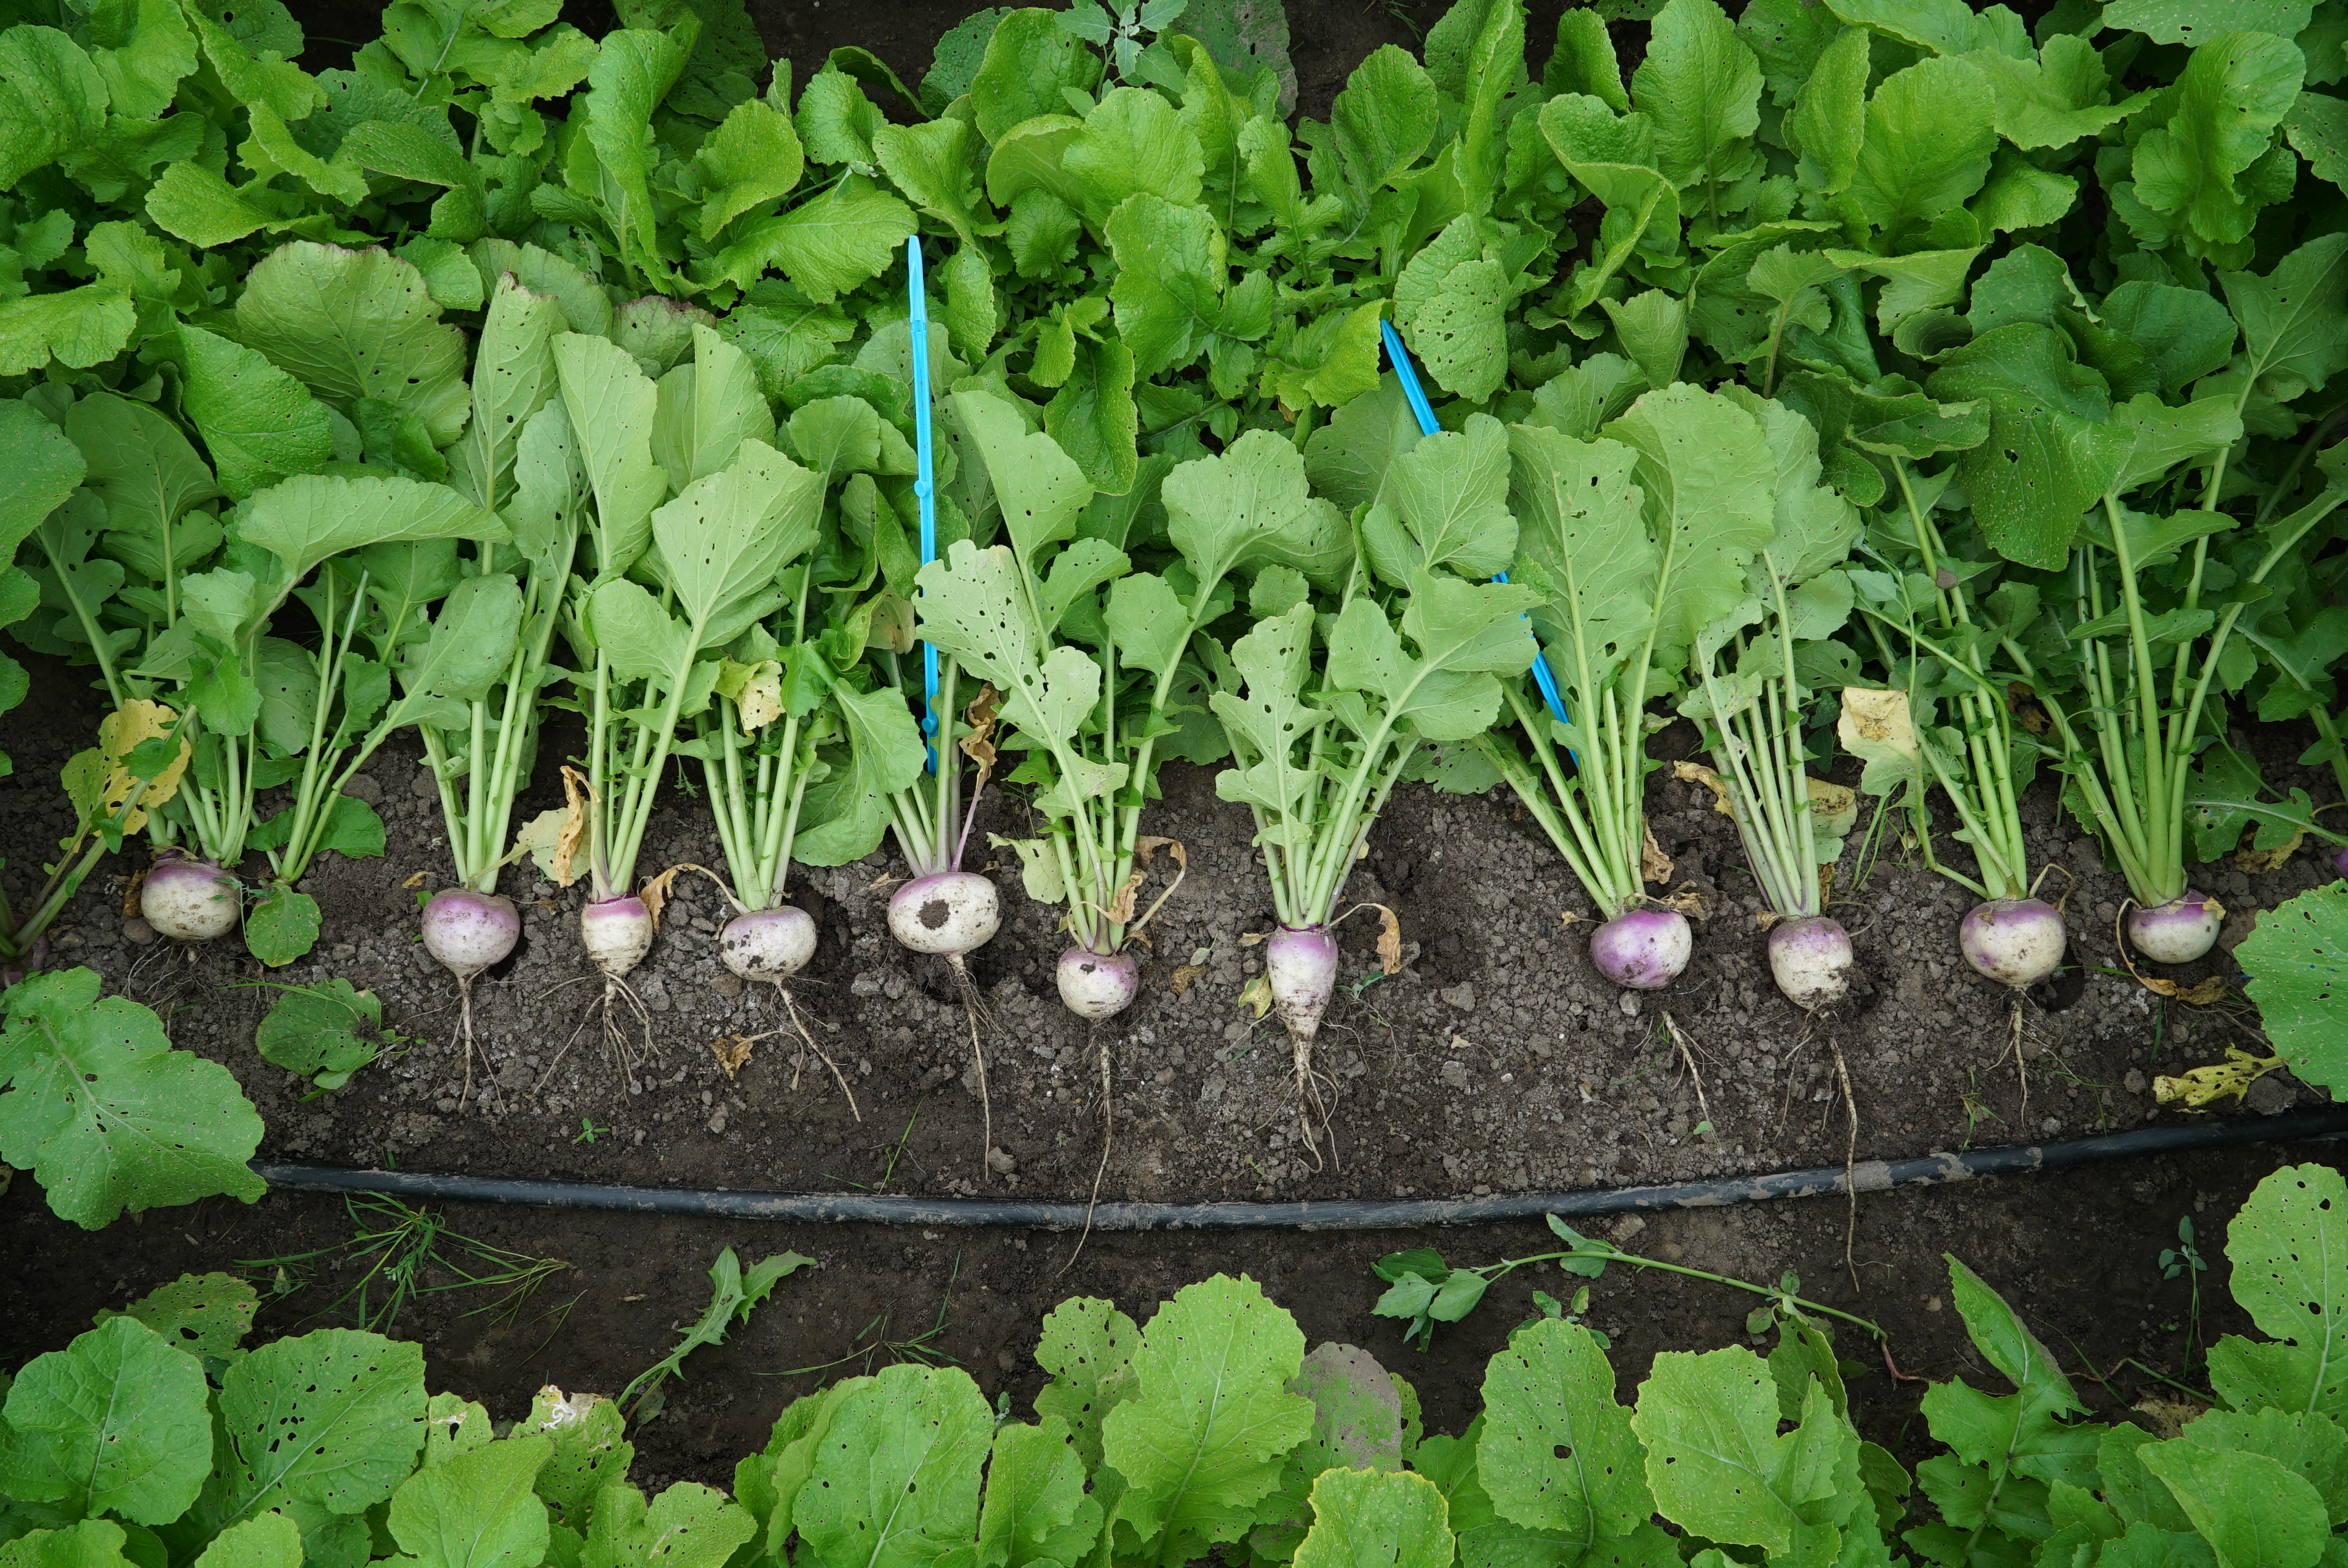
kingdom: Plantae
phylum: Tracheophyta
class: Magnoliopsida
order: Brassicales
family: Brassicaceae
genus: Brassica
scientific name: Brassica rapa
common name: Field mustard
